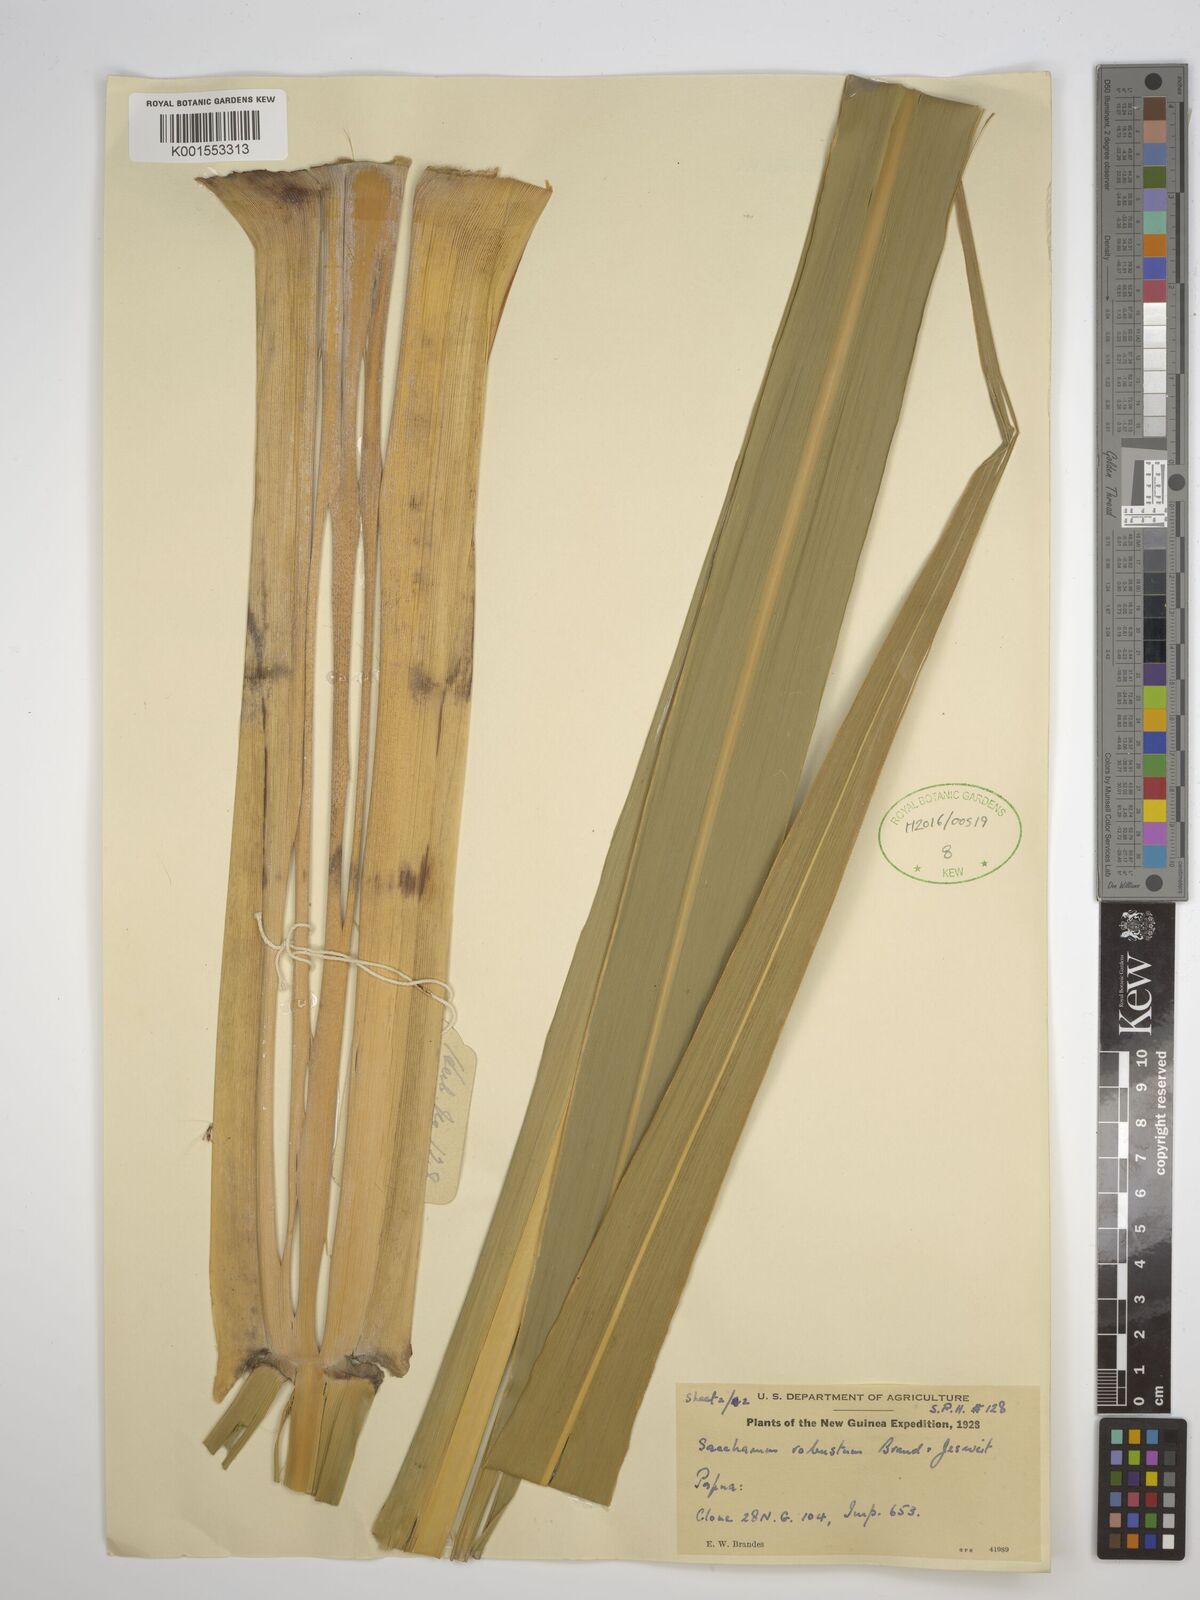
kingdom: Plantae
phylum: Tracheophyta
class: Liliopsida
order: Poales
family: Poaceae
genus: Saccharum
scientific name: Saccharum robustum
